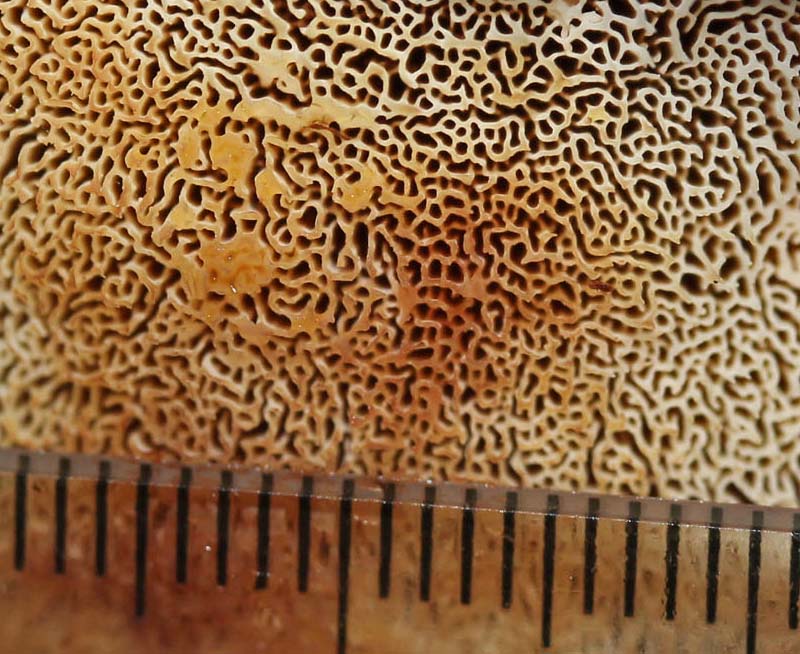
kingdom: Fungi
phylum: Basidiomycota
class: Agaricomycetes
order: Polyporales
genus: Fuscopostia
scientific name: Fuscopostia fragilis
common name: brunende kødporesvamp
